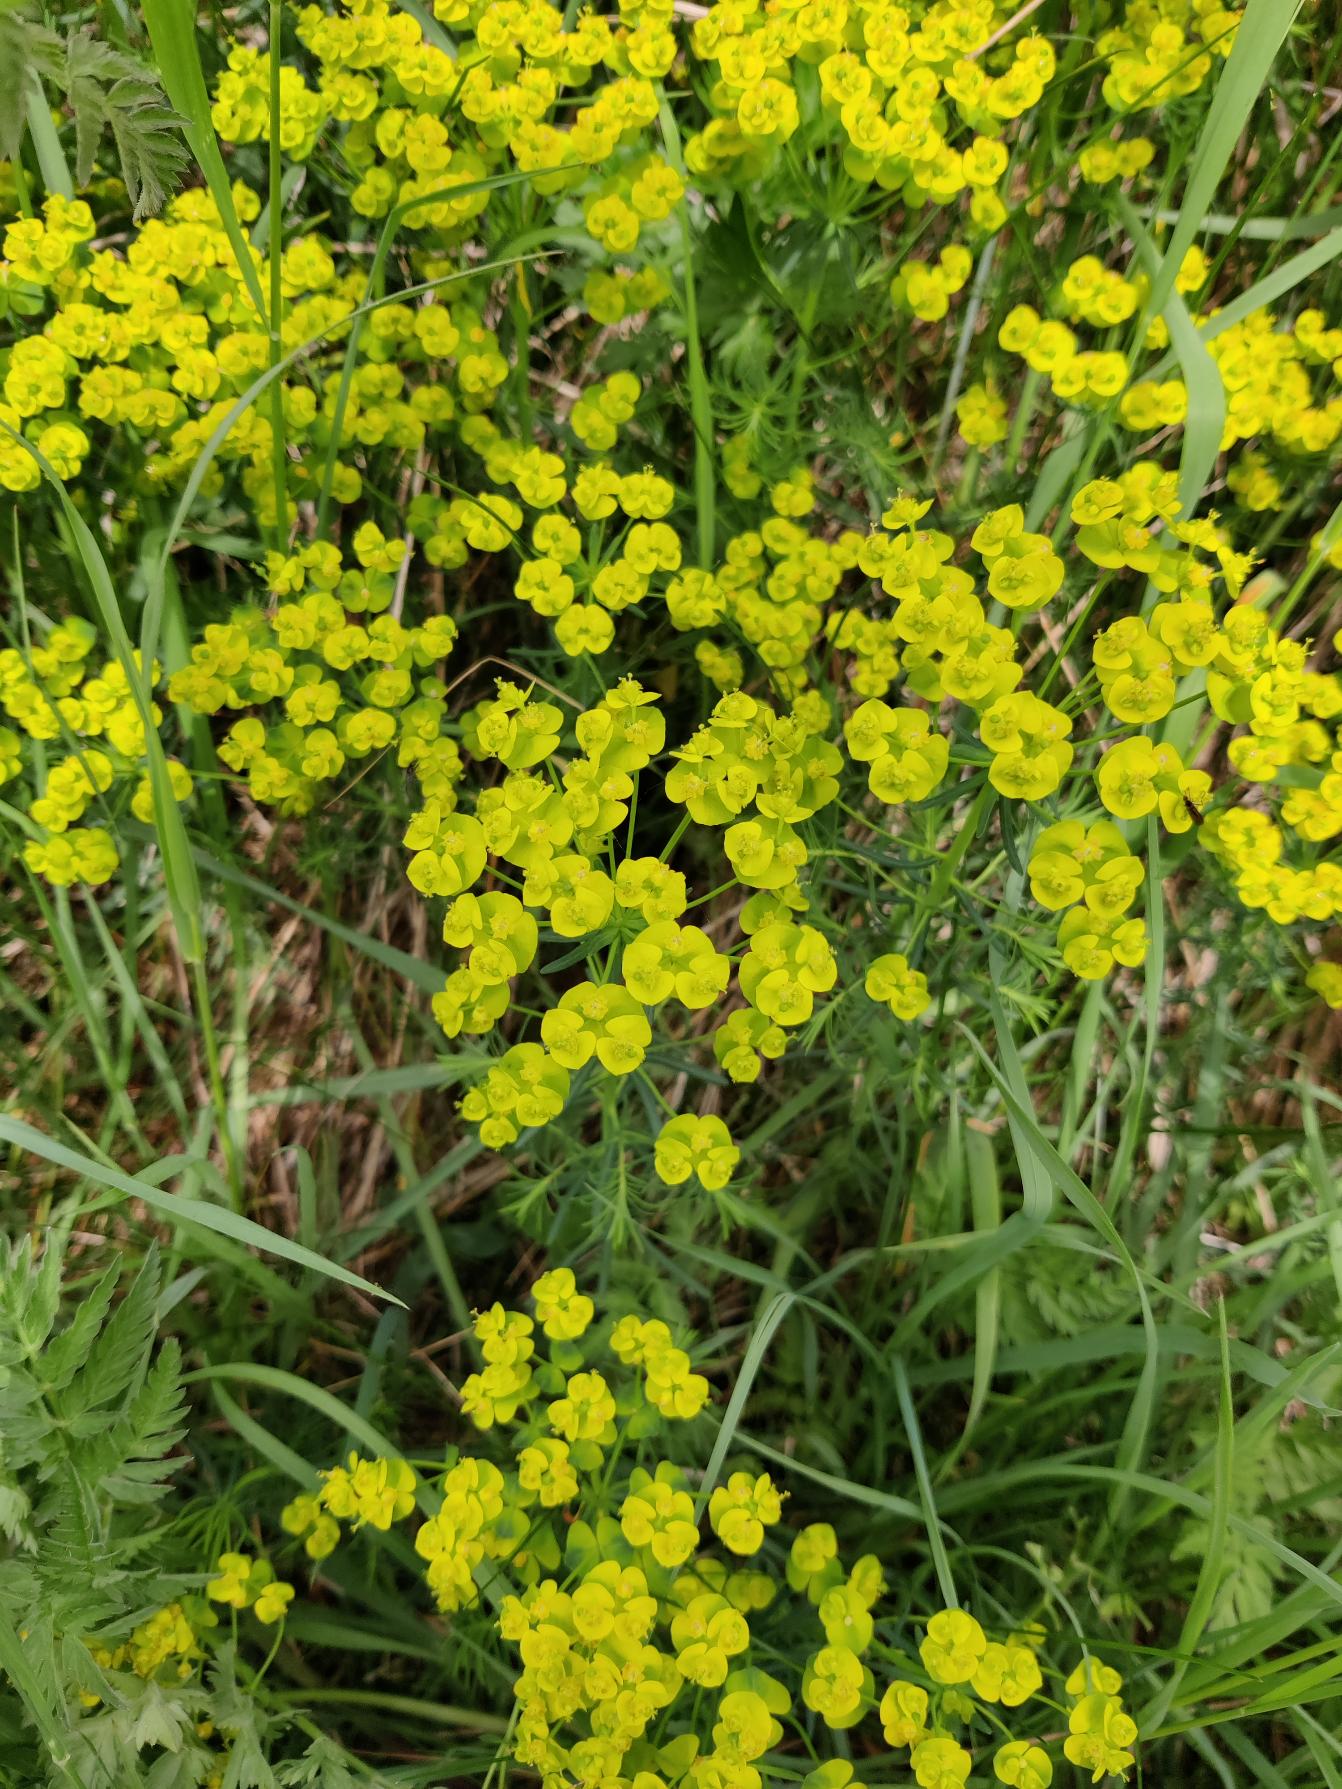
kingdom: Plantae
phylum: Tracheophyta
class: Magnoliopsida
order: Malpighiales
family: Euphorbiaceae
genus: Euphorbia
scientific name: Euphorbia cyparissias
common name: Cypres-vortemælk
